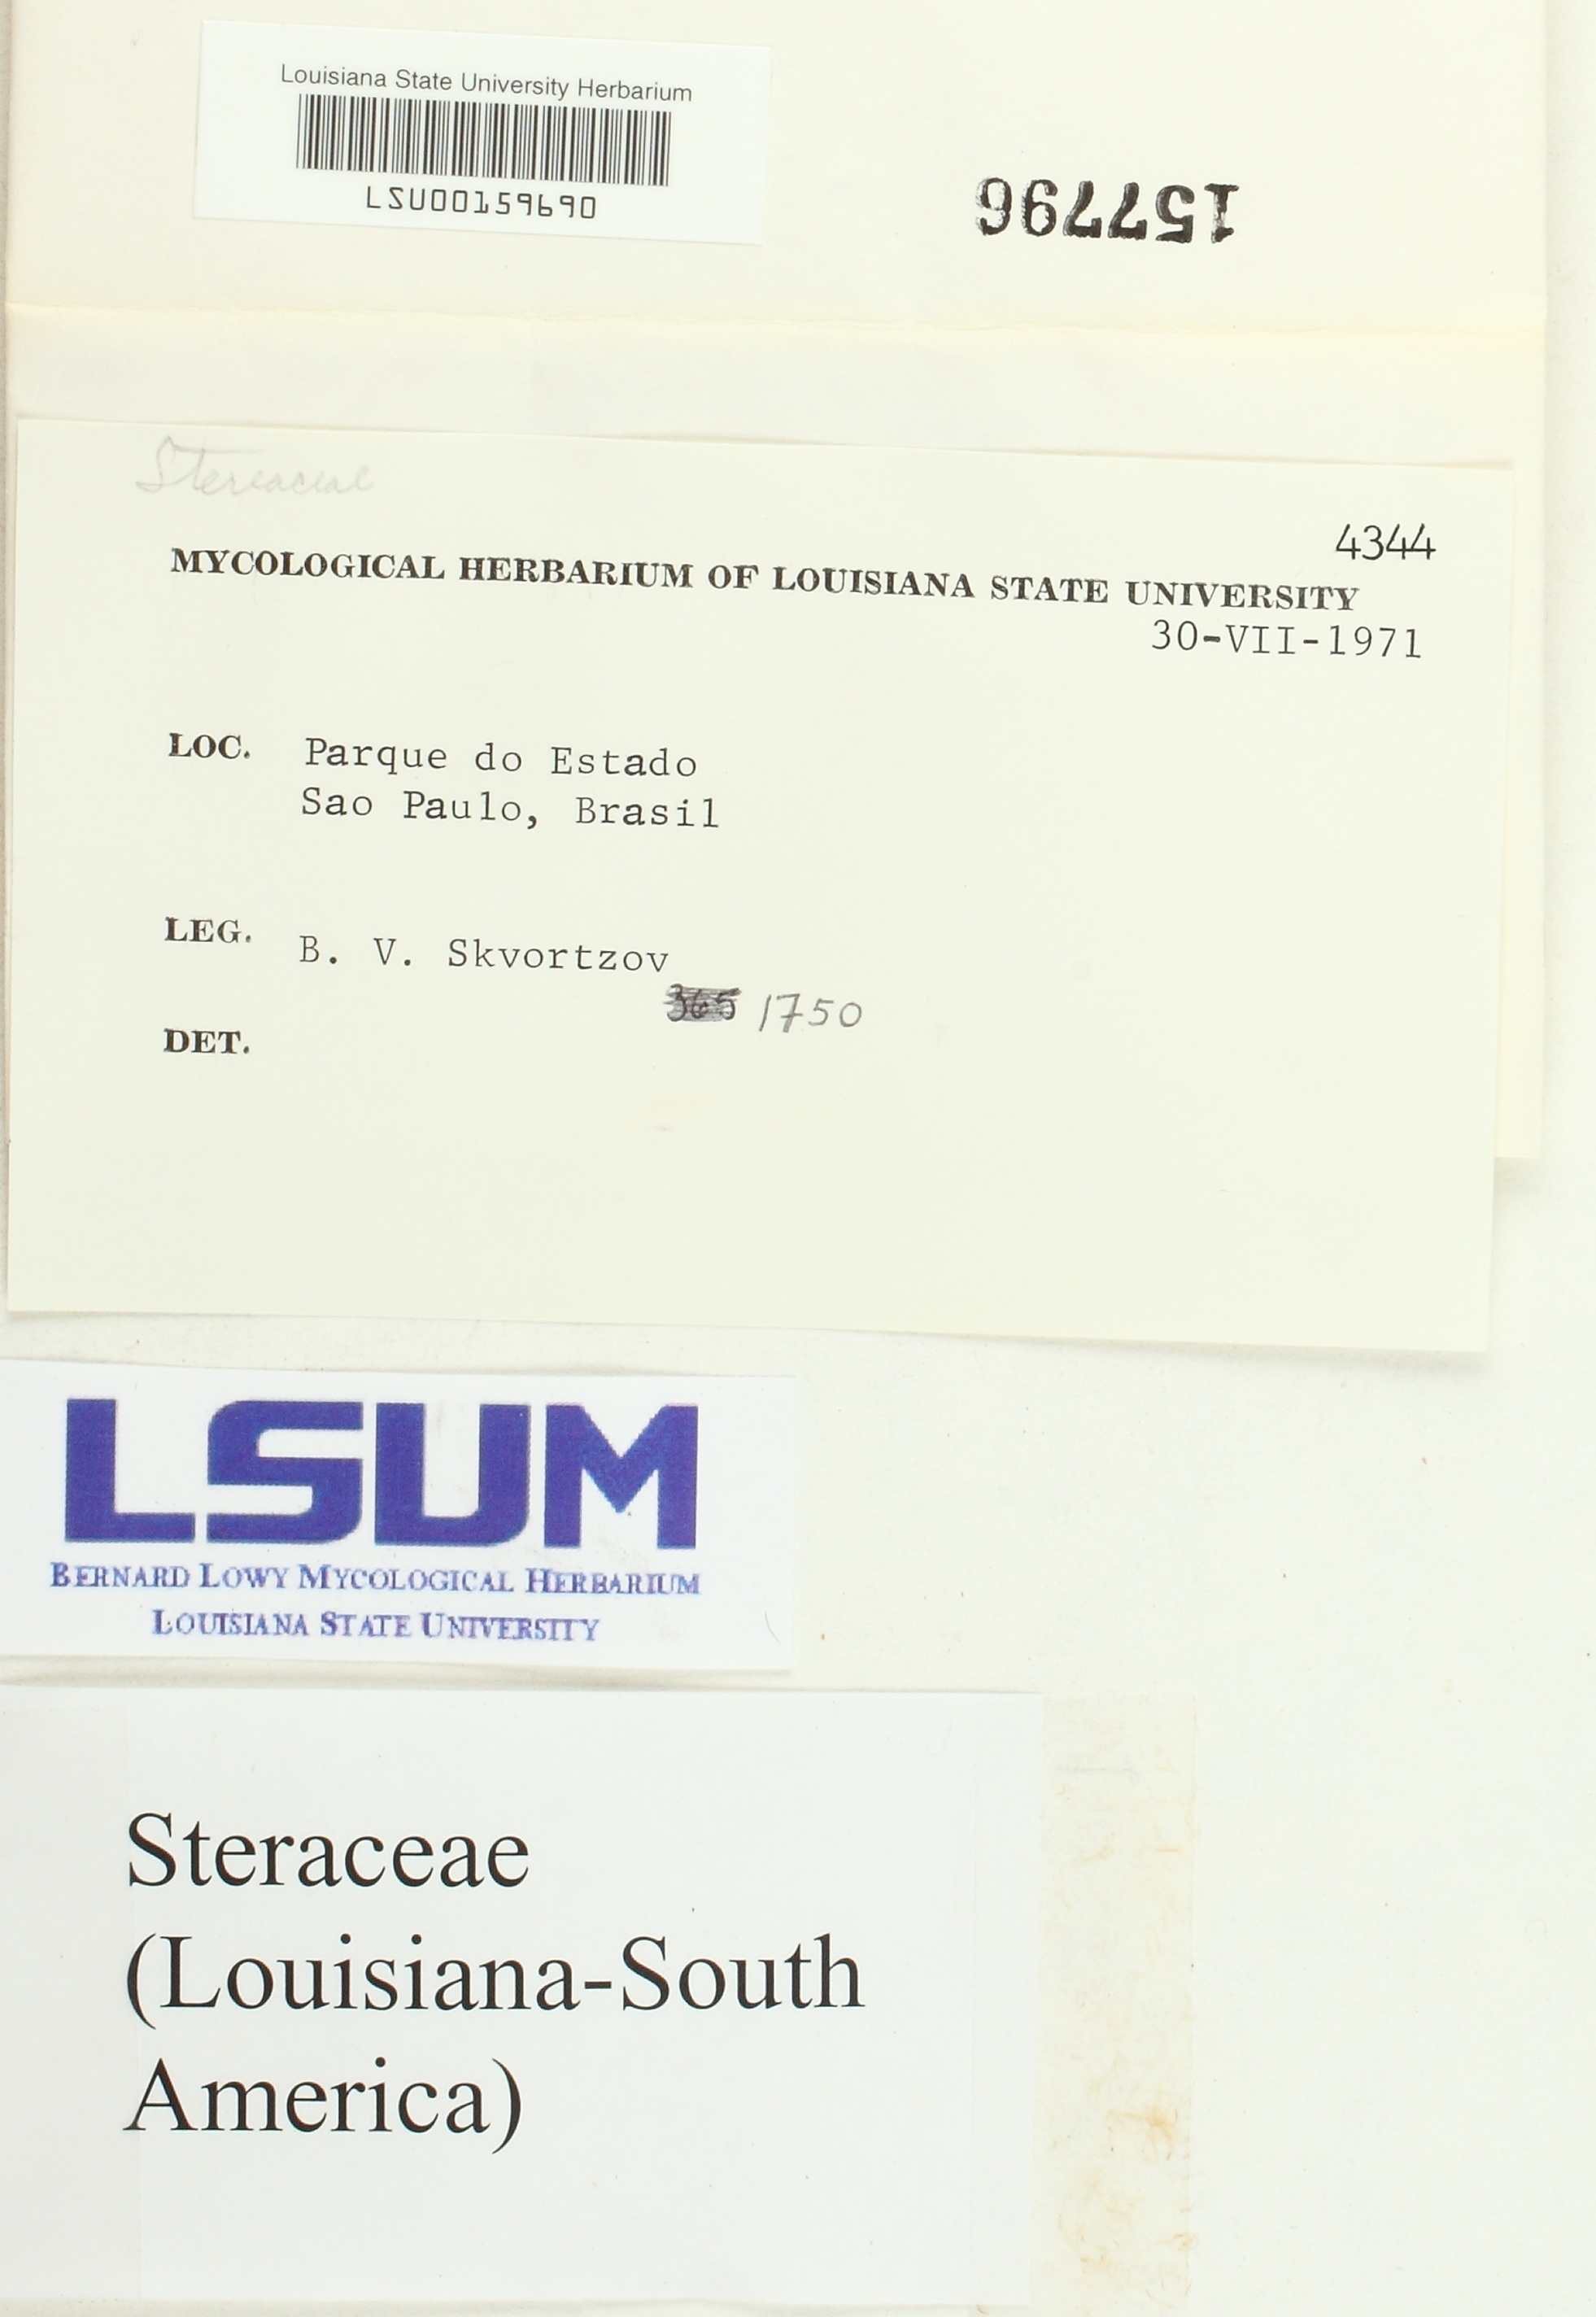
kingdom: Fungi
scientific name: Fungi
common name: Fungi
